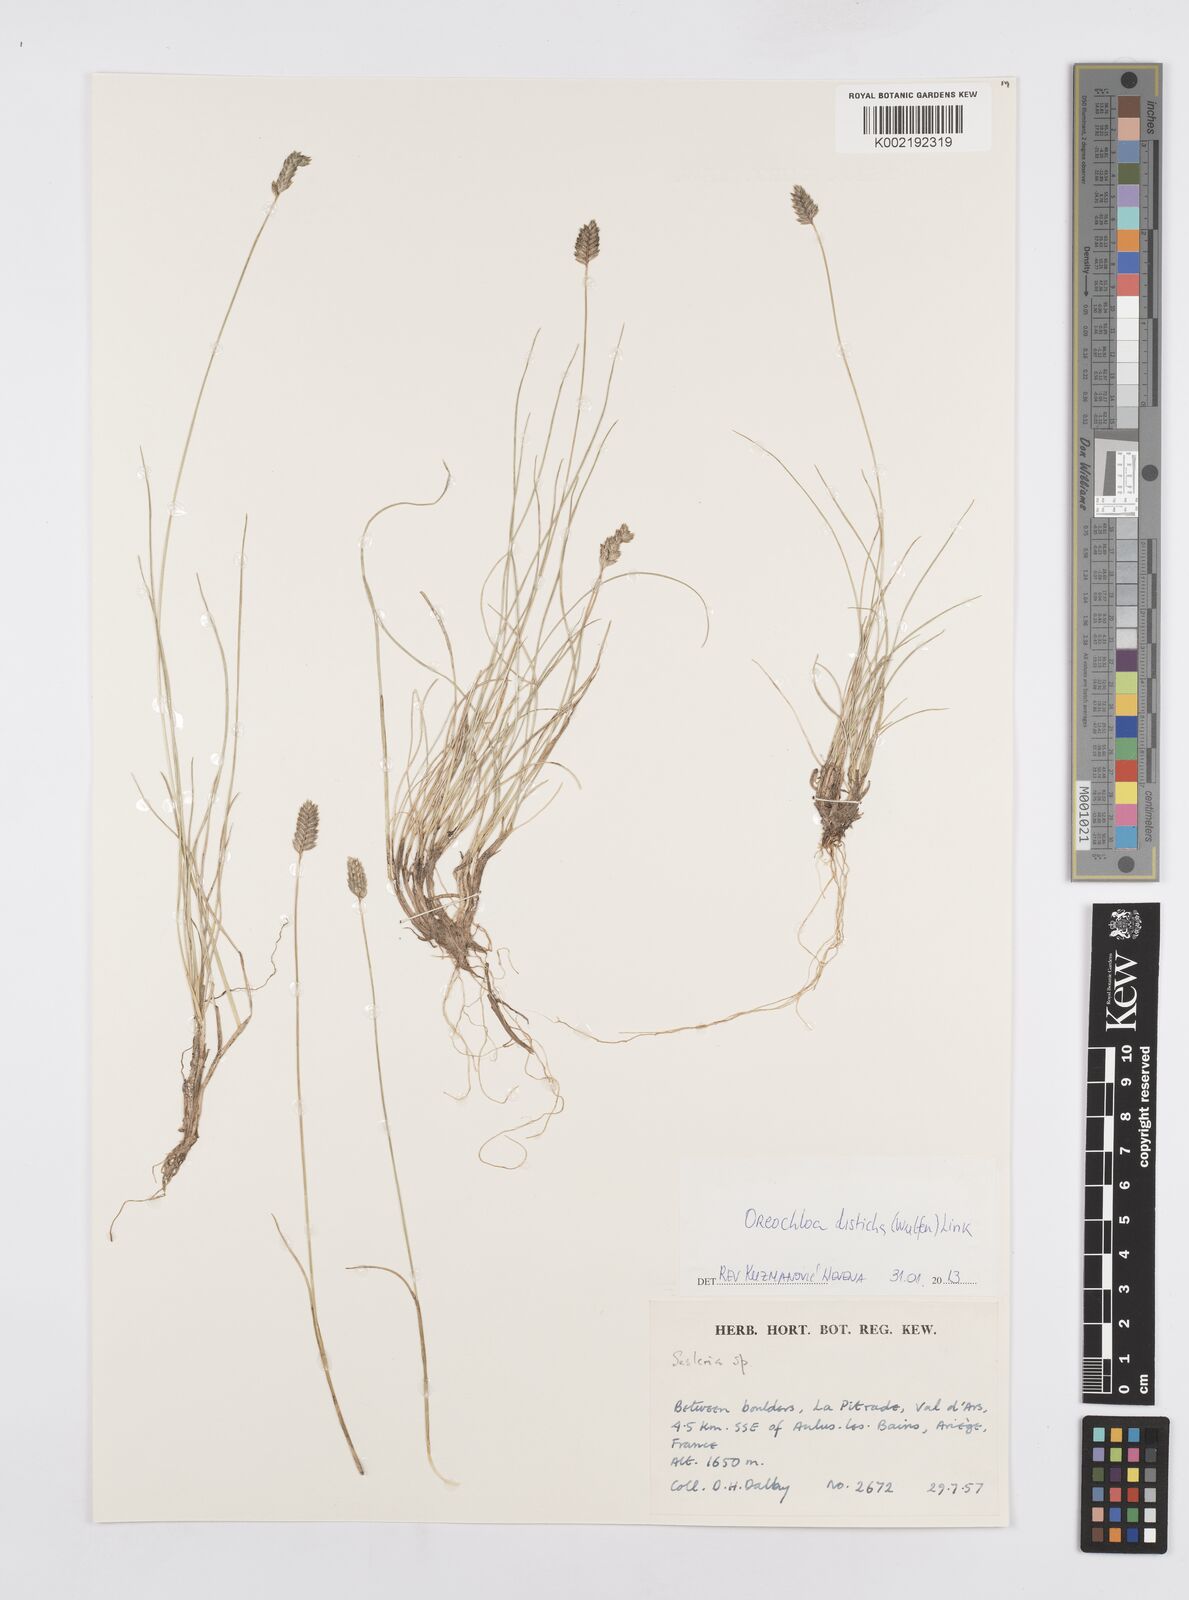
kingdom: Plantae
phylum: Tracheophyta
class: Liliopsida
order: Poales
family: Poaceae
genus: Oreochloa
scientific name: Oreochloa disticha
